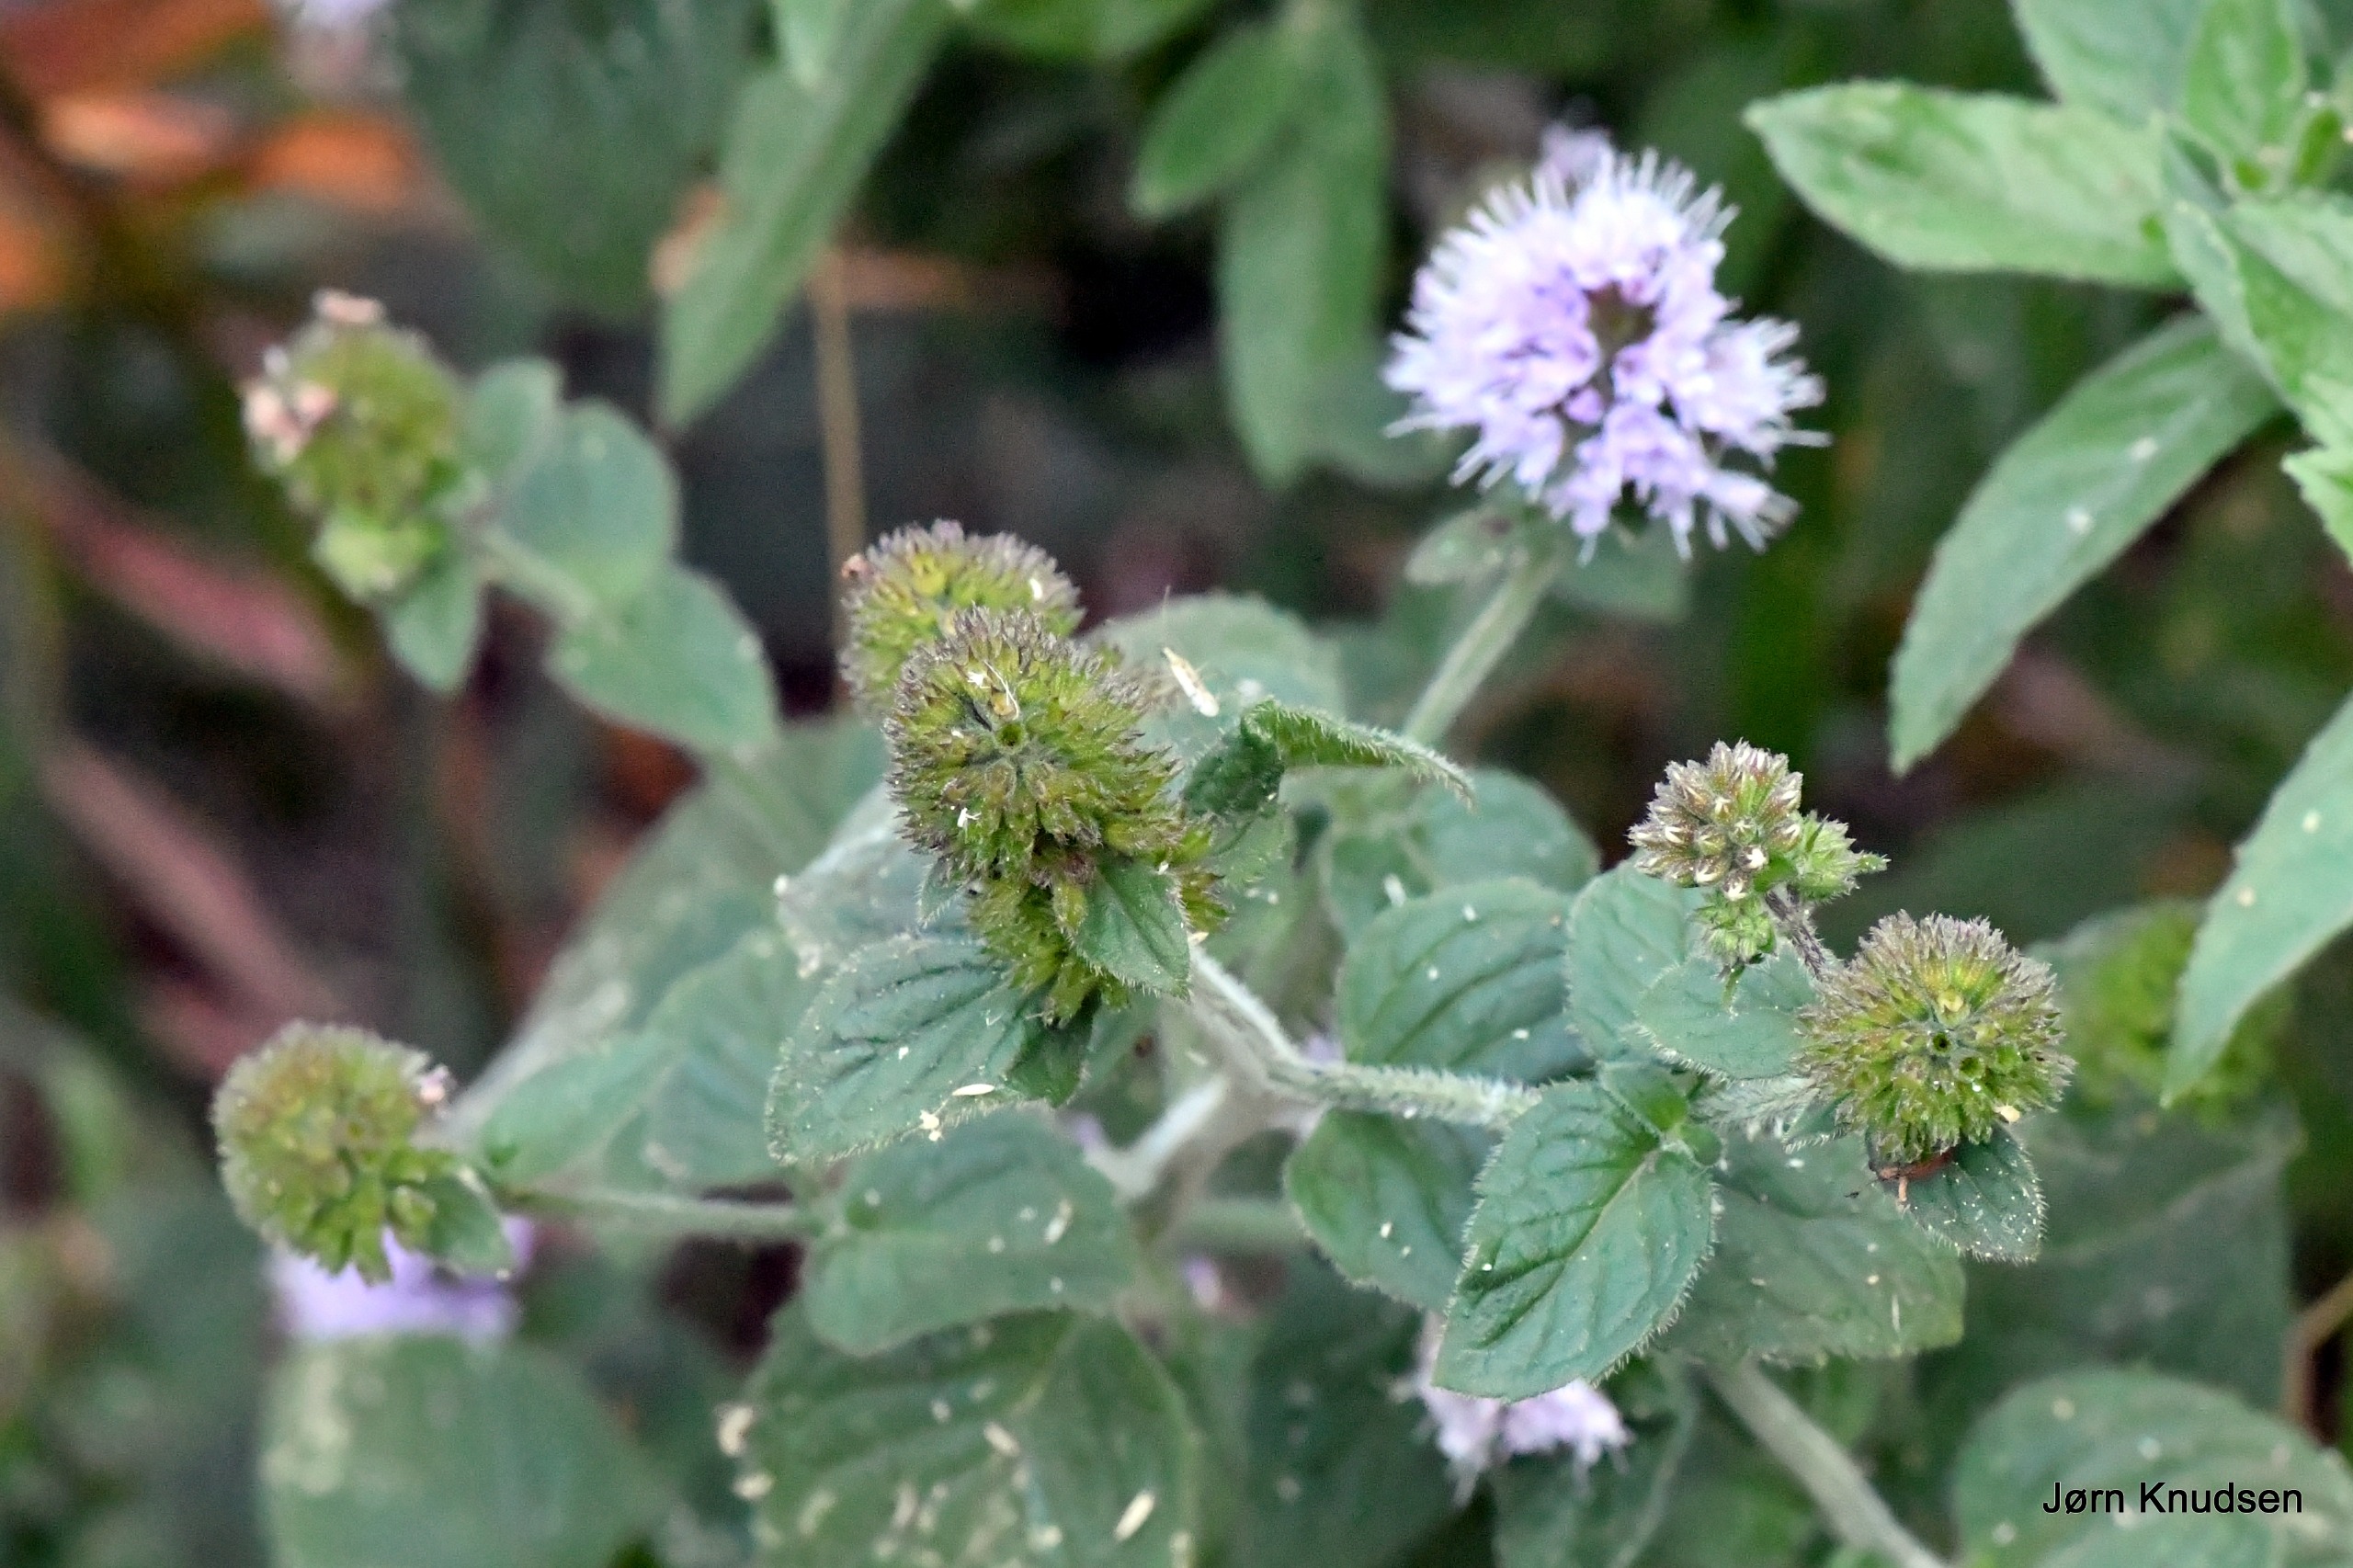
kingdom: Plantae
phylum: Tracheophyta
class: Magnoliopsida
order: Lamiales
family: Lamiaceae
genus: Mentha
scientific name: Mentha aquatica
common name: Vand-mynte
